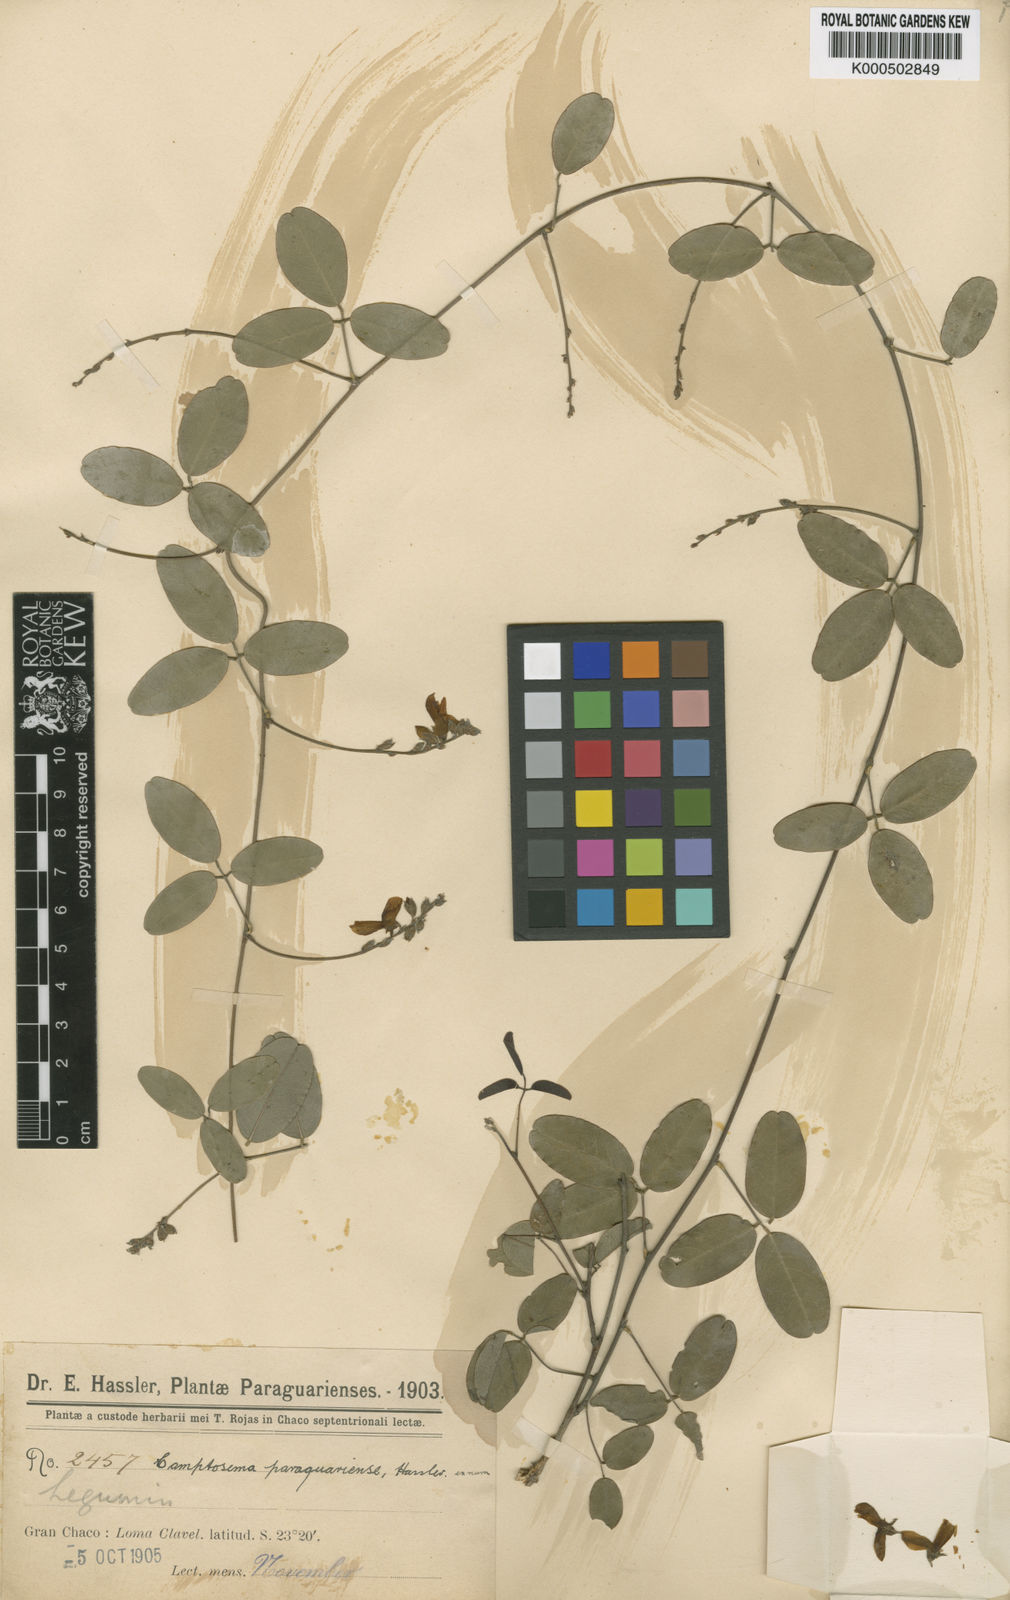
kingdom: Plantae
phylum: Tracheophyta
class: Magnoliopsida
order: Fabales
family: Fabaceae
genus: Caetangil
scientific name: Caetangil paraguariensis
